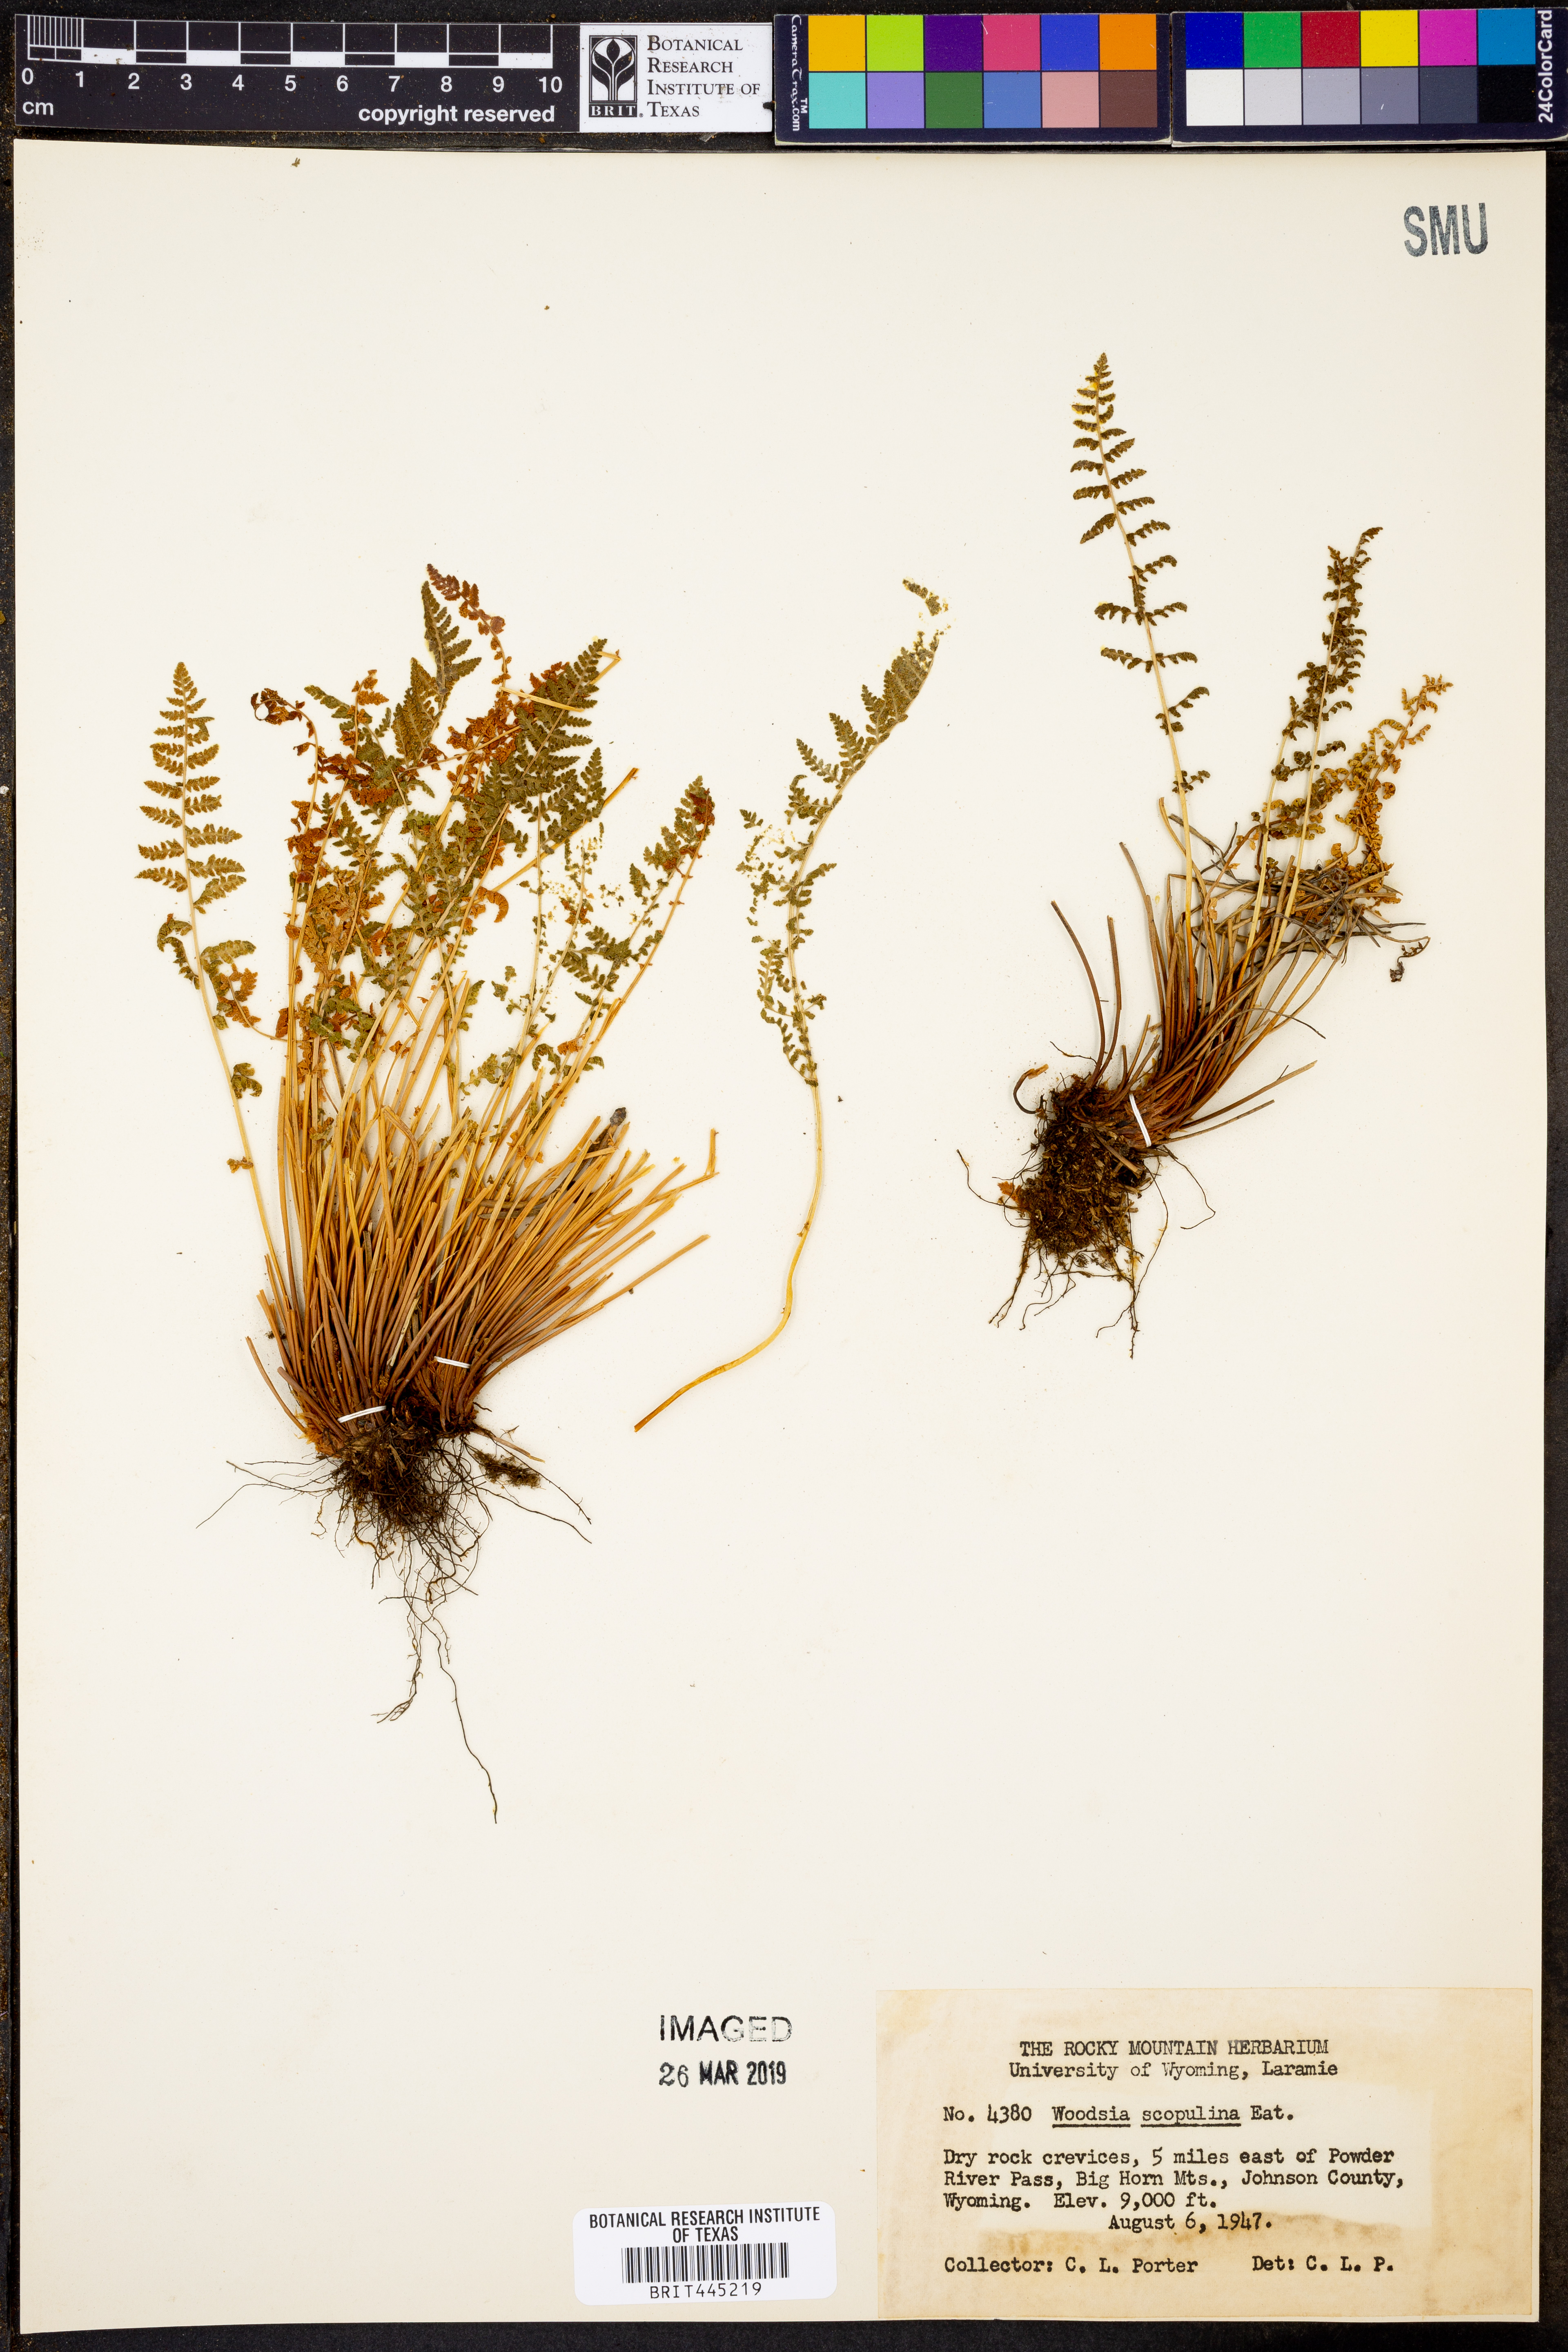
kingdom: Plantae
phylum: Tracheophyta
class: Polypodiopsida
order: Polypodiales
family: Woodsiaceae
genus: Physematium
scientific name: Physematium scopulinum
